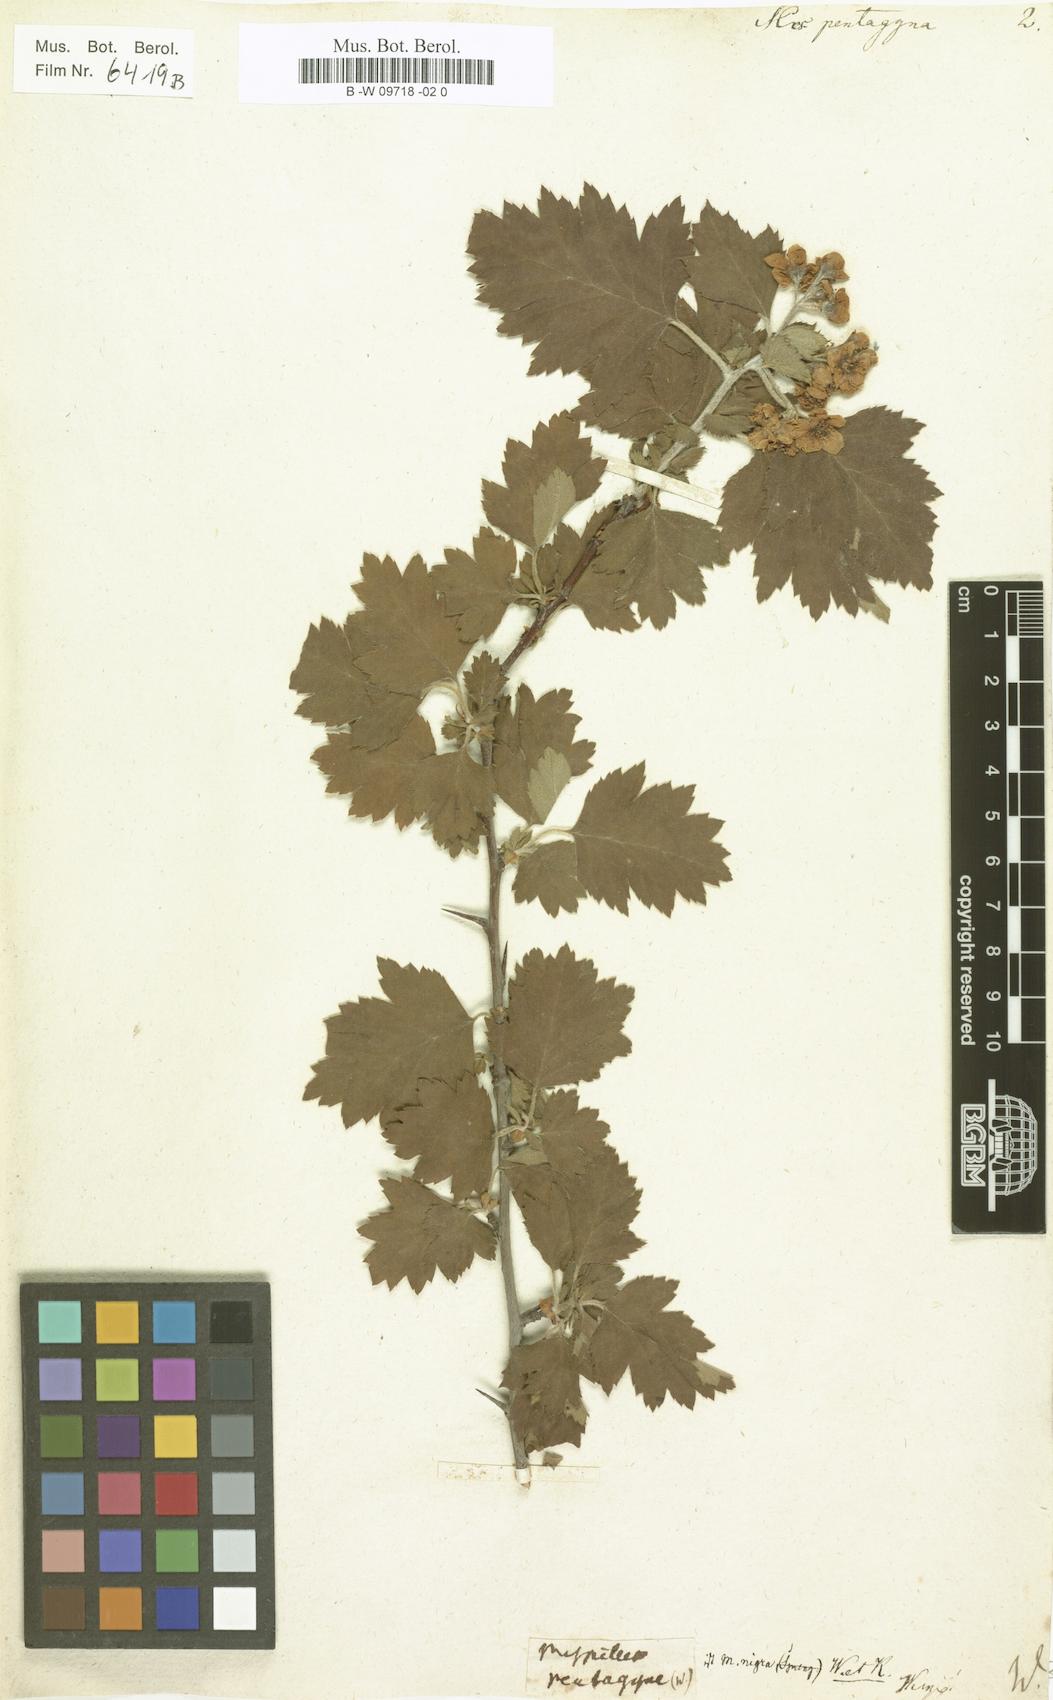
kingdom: Plantae
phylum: Tracheophyta
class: Magnoliopsida
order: Rosales
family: Rosaceae
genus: Crataegus
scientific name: Crataegus pentagyna
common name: Small-flowered black hawthorn
